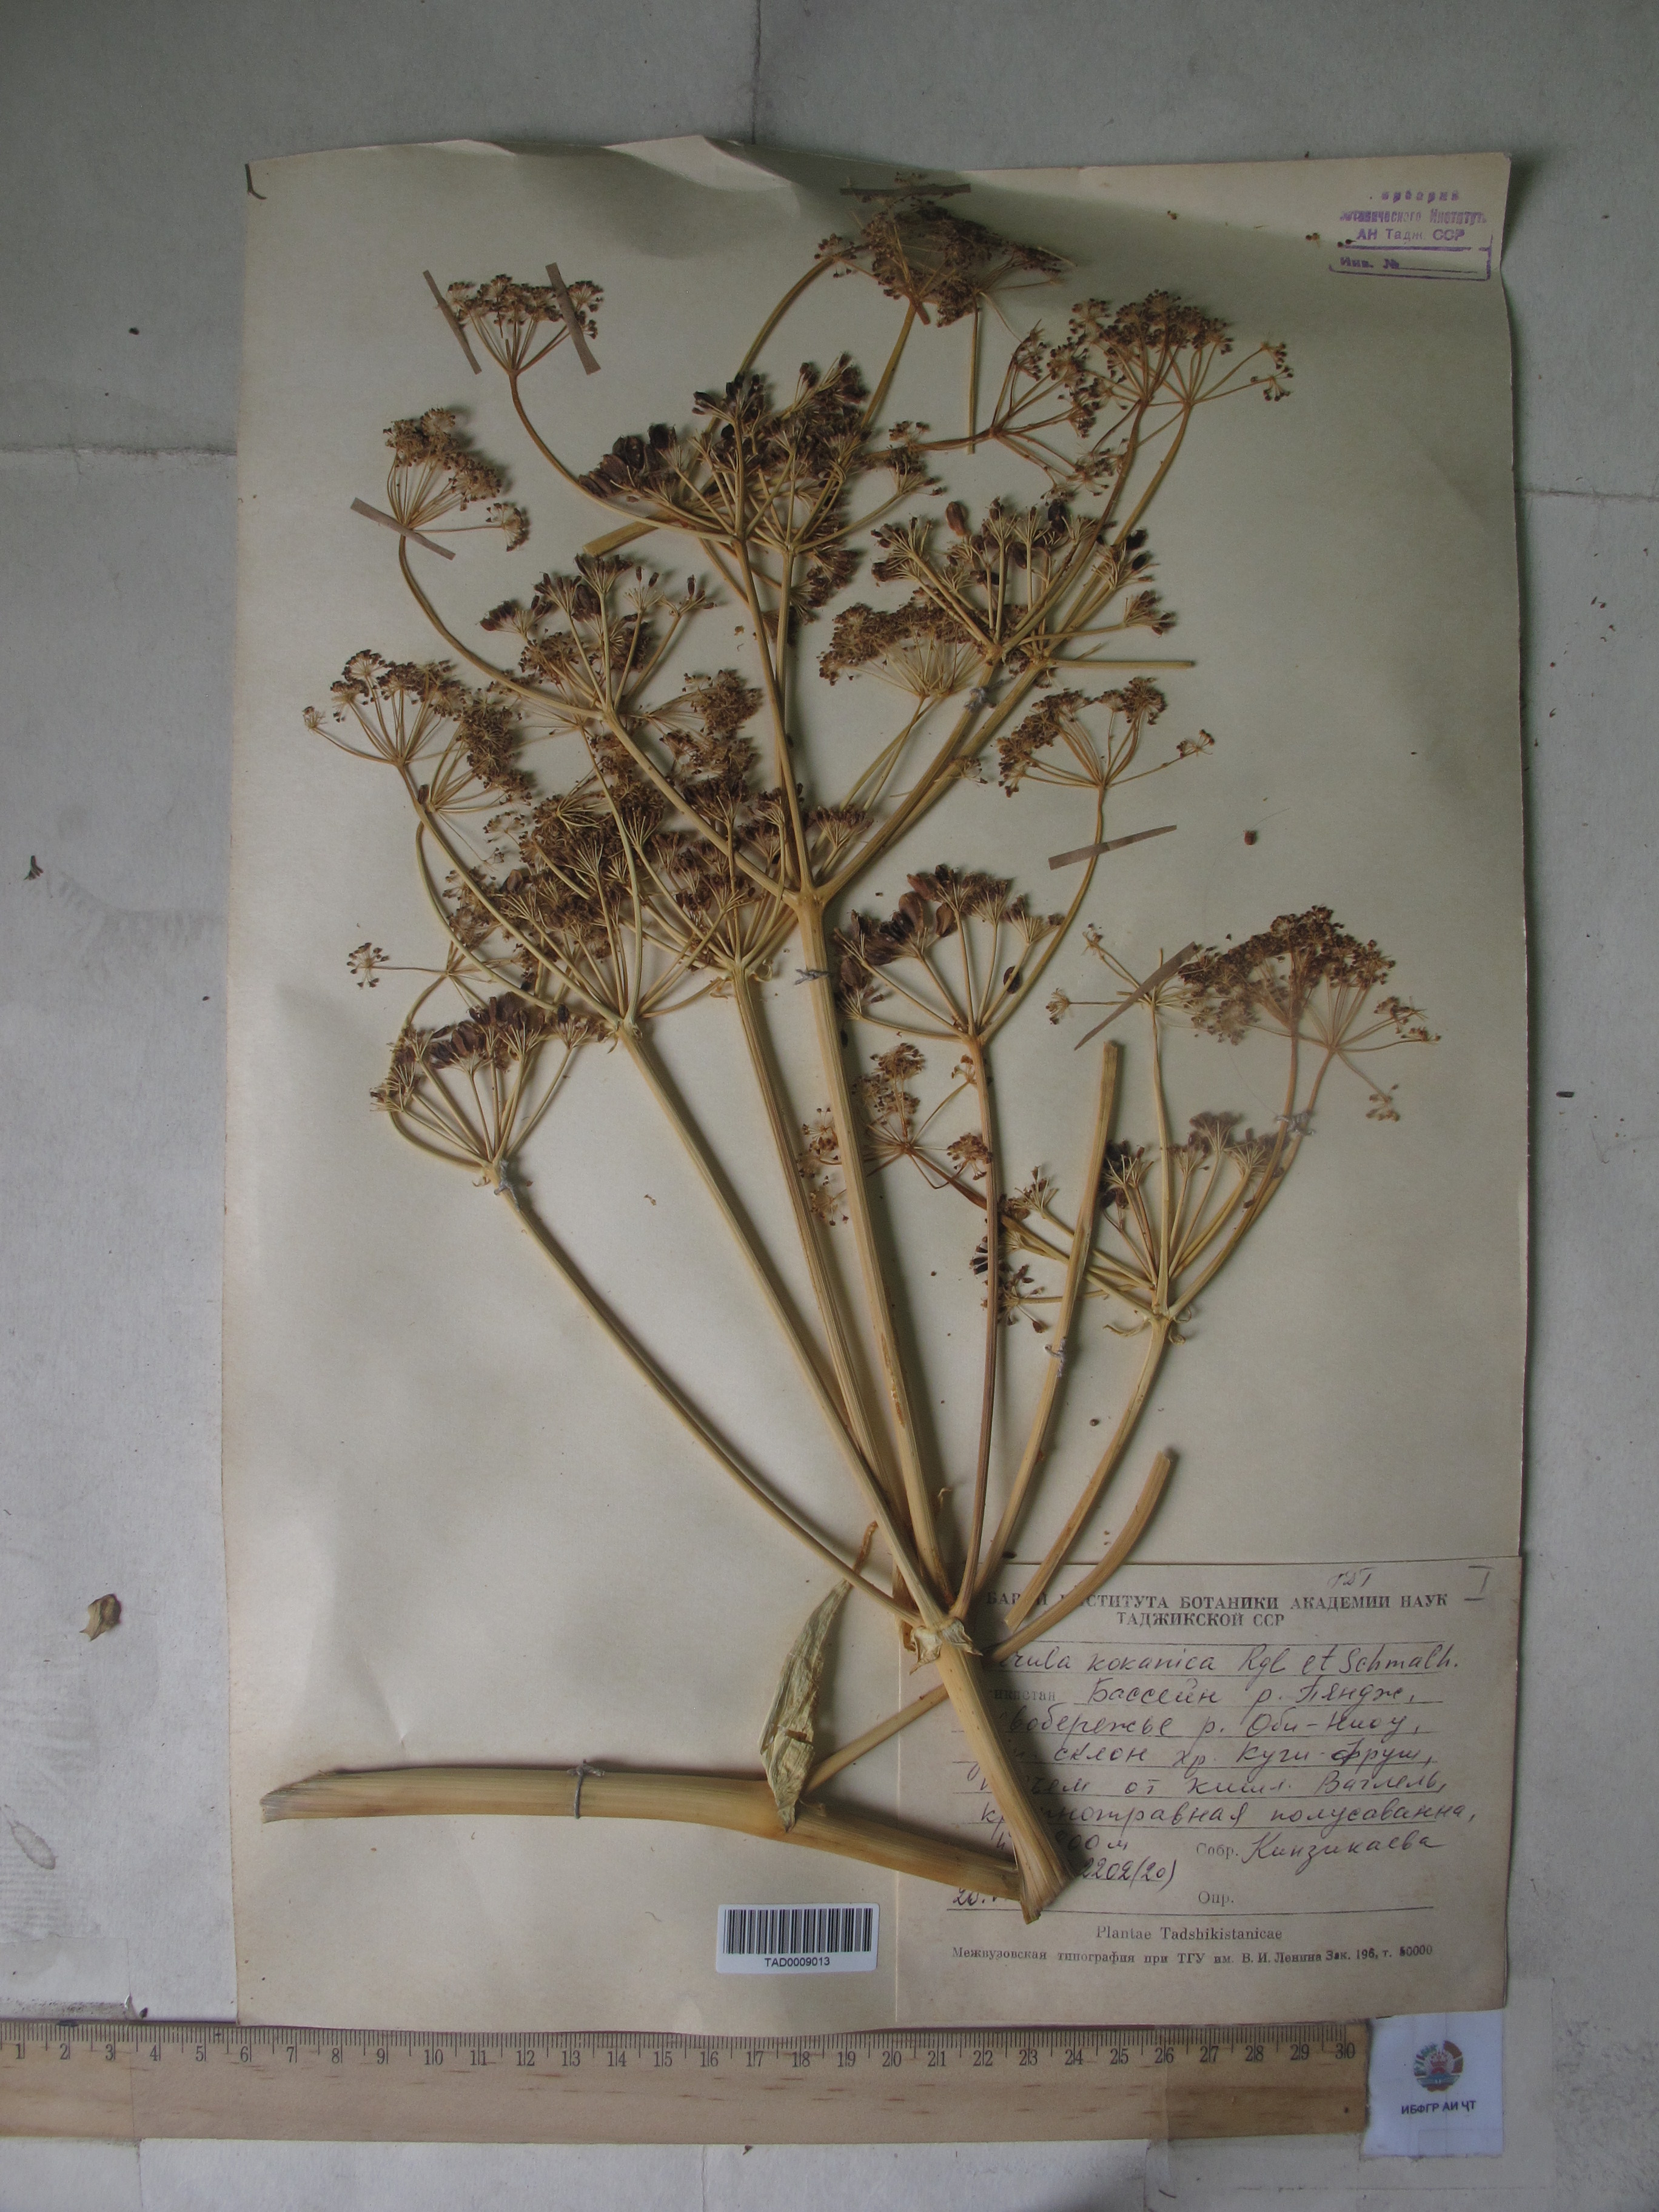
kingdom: Plantae
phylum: Tracheophyta
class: Magnoliopsida
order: Apiales
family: Apiaceae
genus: Ferula
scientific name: Ferula kokanica
